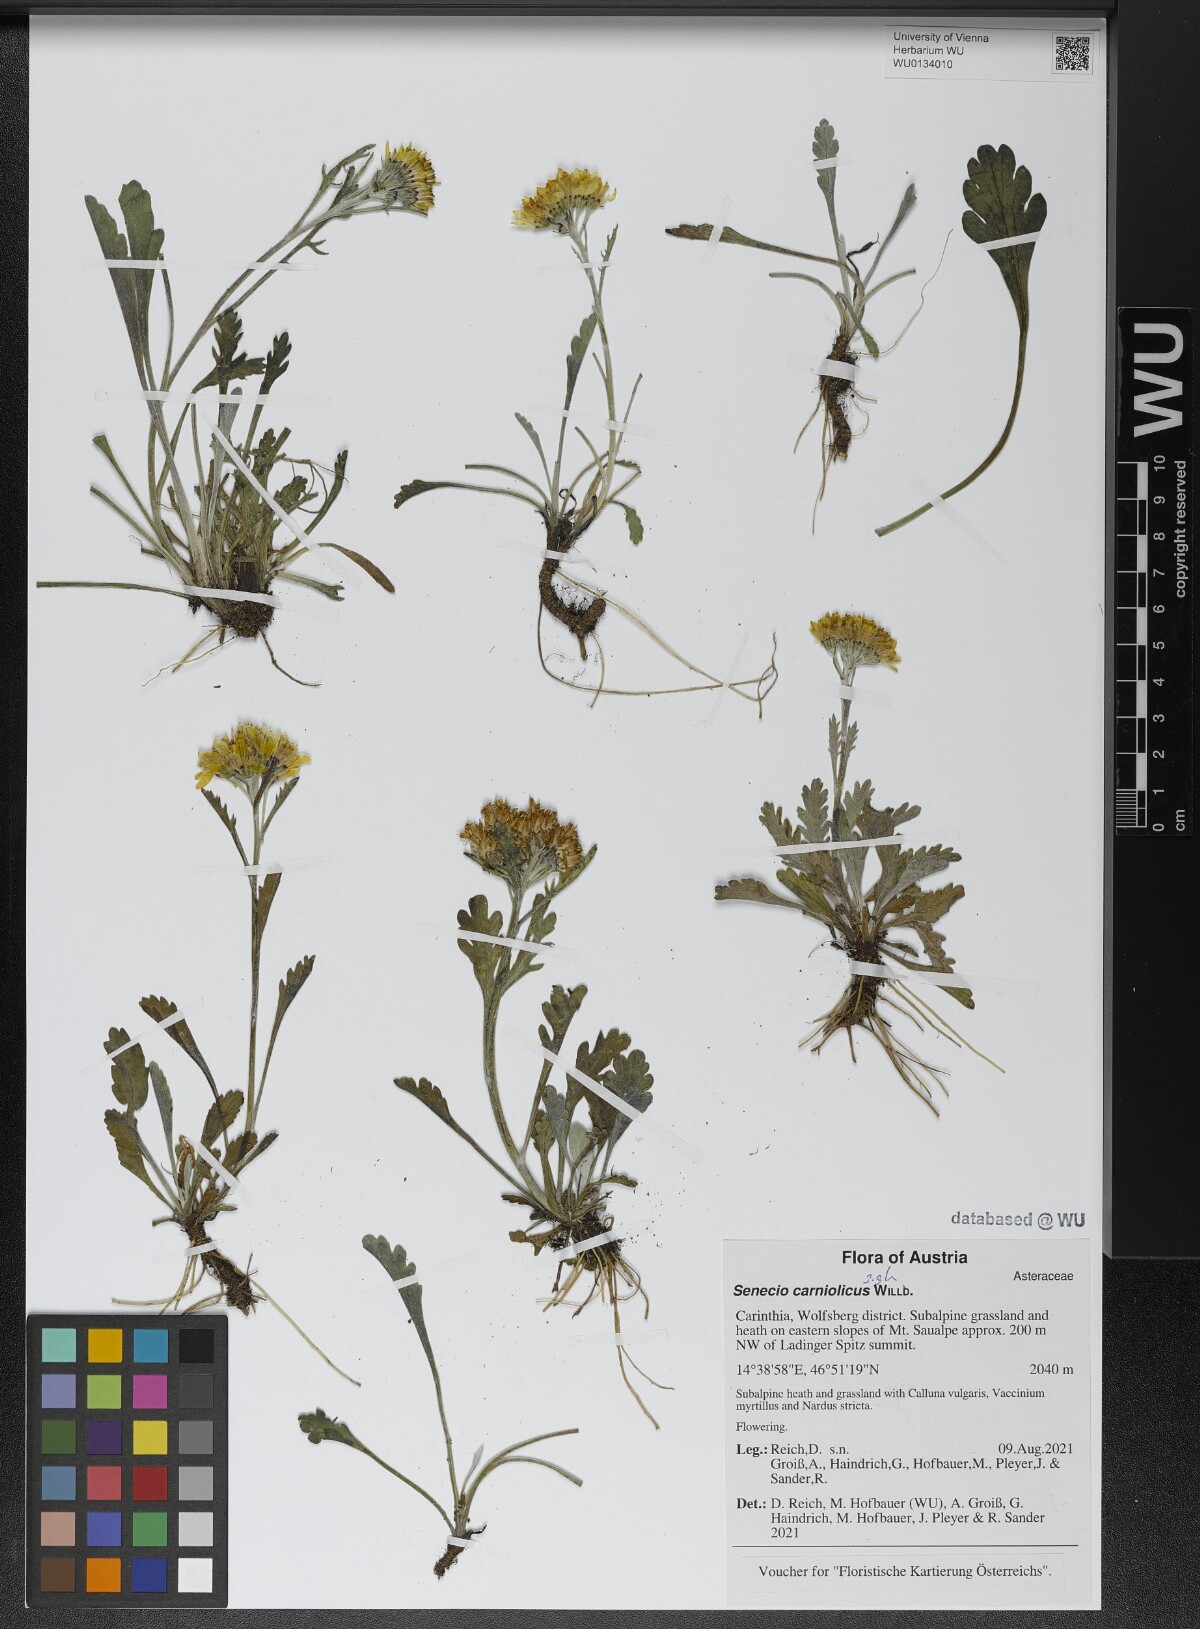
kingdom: Plantae
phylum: Tracheophyta
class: Magnoliopsida
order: Asterales
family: Asteraceae
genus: Jacobaea
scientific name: Jacobaea carniolica
